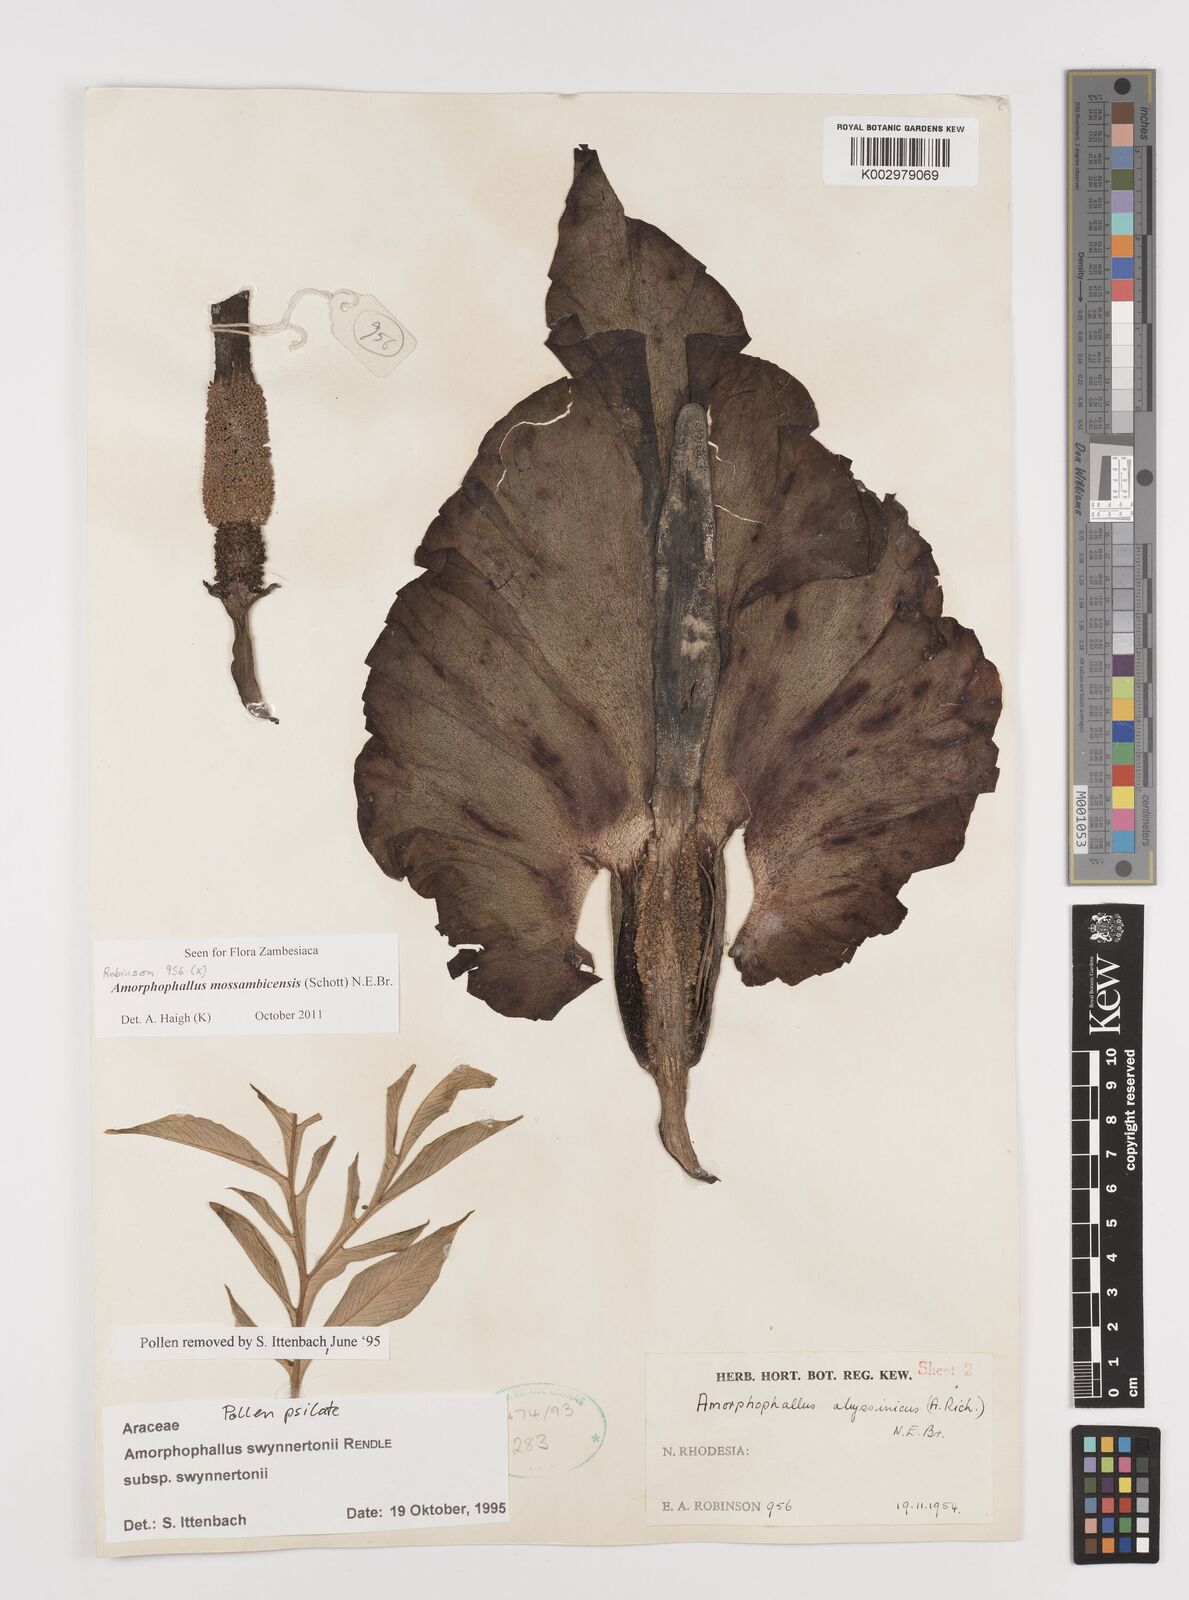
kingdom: Plantae
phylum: Tracheophyta
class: Liliopsida
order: Alismatales
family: Araceae
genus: Amorphophallus
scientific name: Amorphophallus mossambicensis
